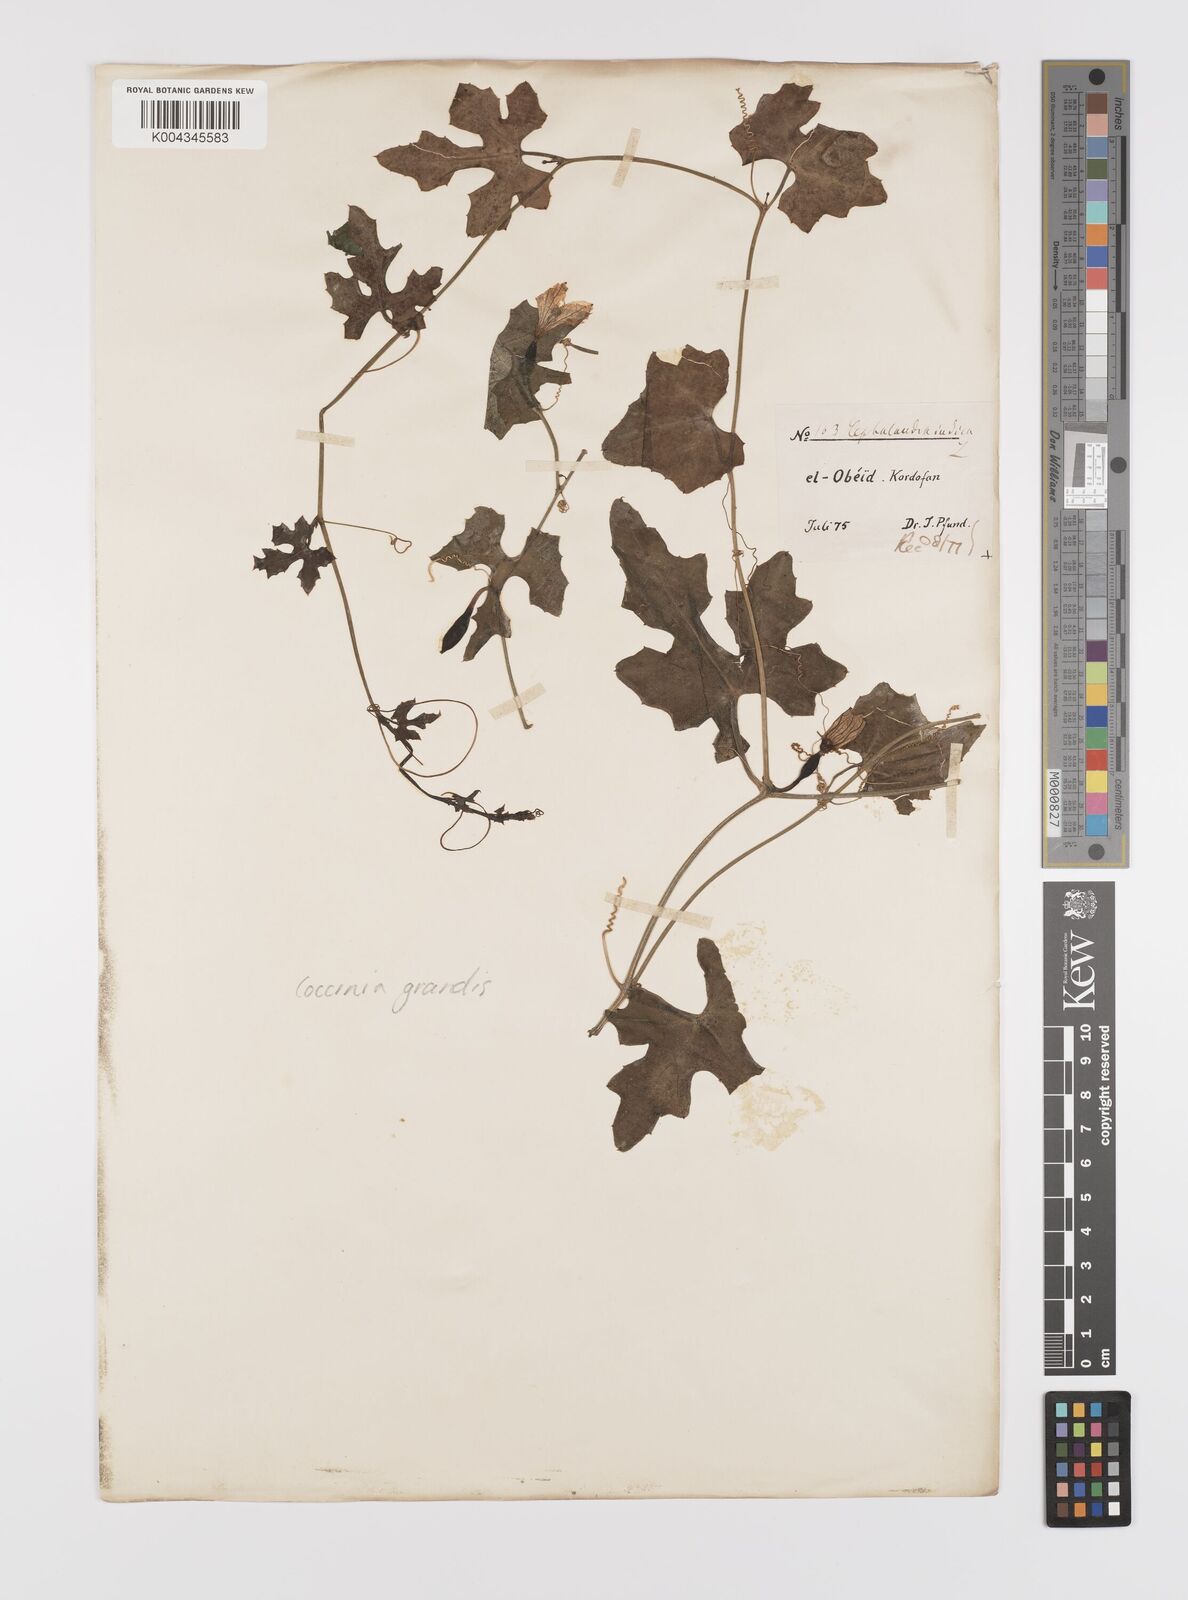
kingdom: Plantae
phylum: Tracheophyta
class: Magnoliopsida
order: Cucurbitales
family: Cucurbitaceae
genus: Coccinia
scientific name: Coccinia grandis
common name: Ivy gourd
